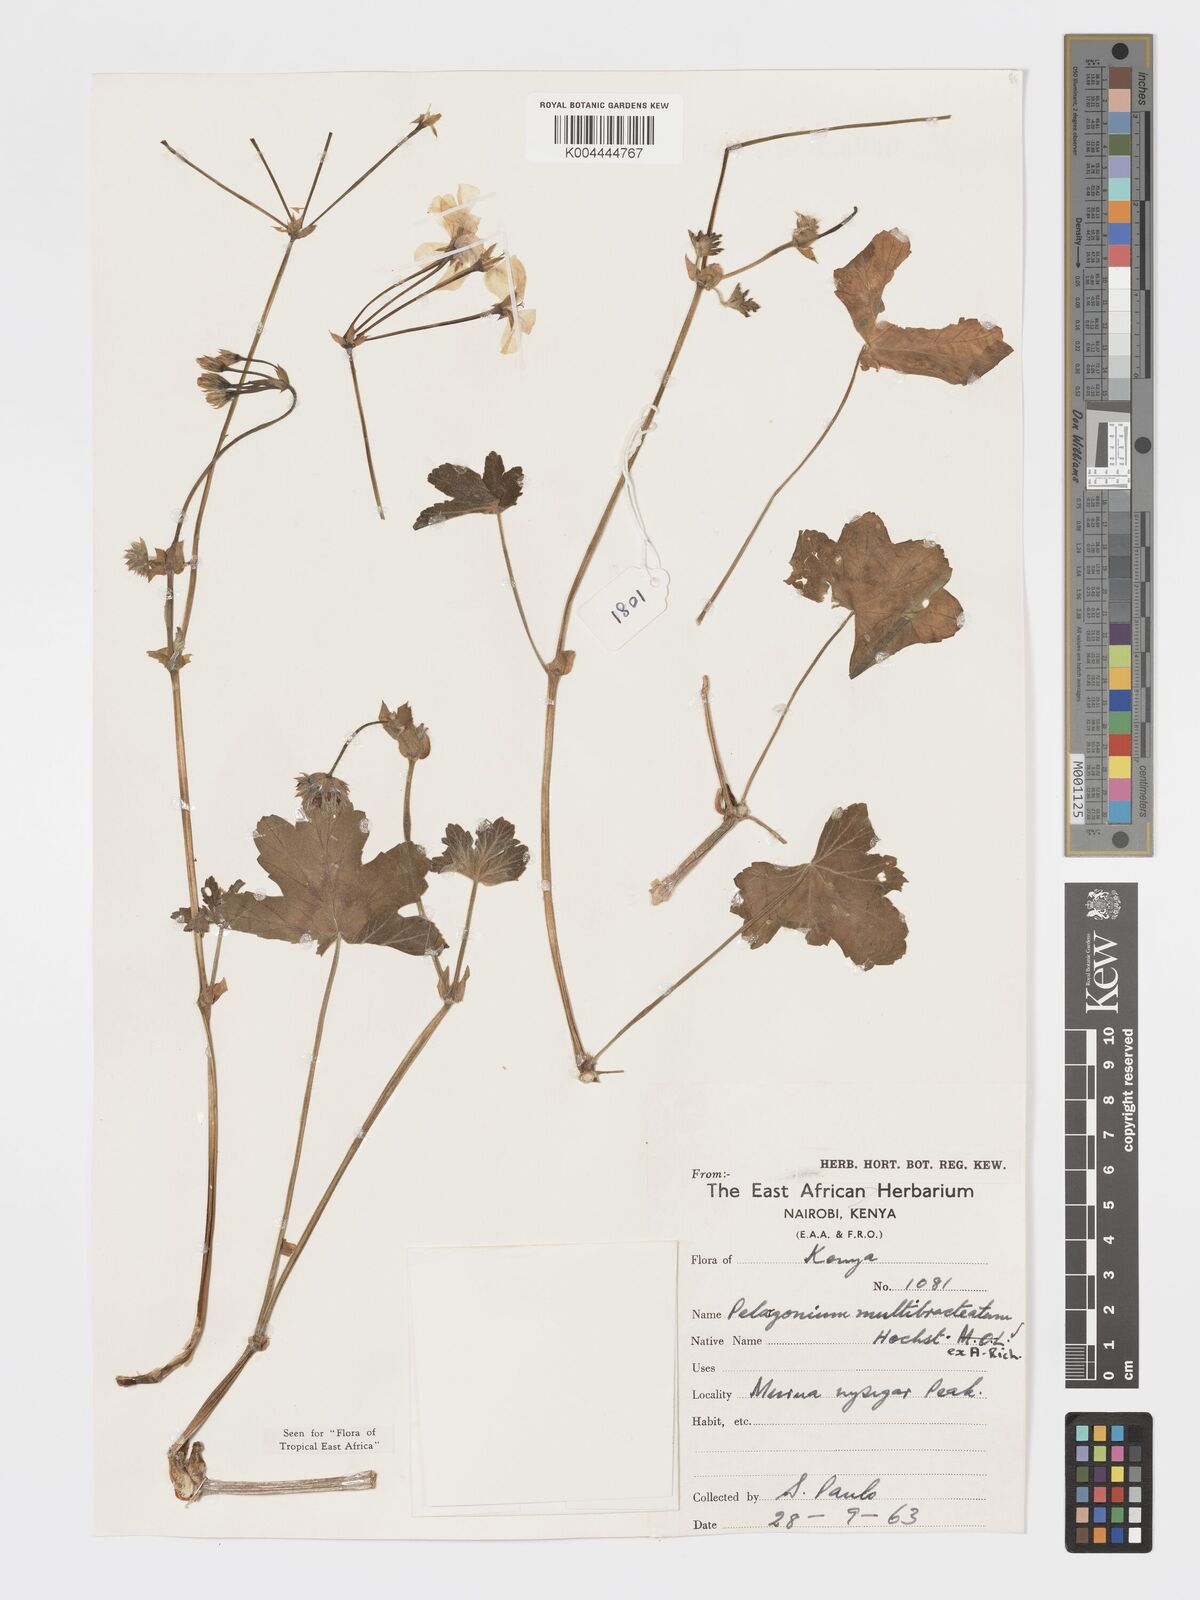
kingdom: Plantae
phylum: Tracheophyta
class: Magnoliopsida
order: Geraniales
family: Geraniaceae
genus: Pelargonium
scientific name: Pelargonium alchemilloides
